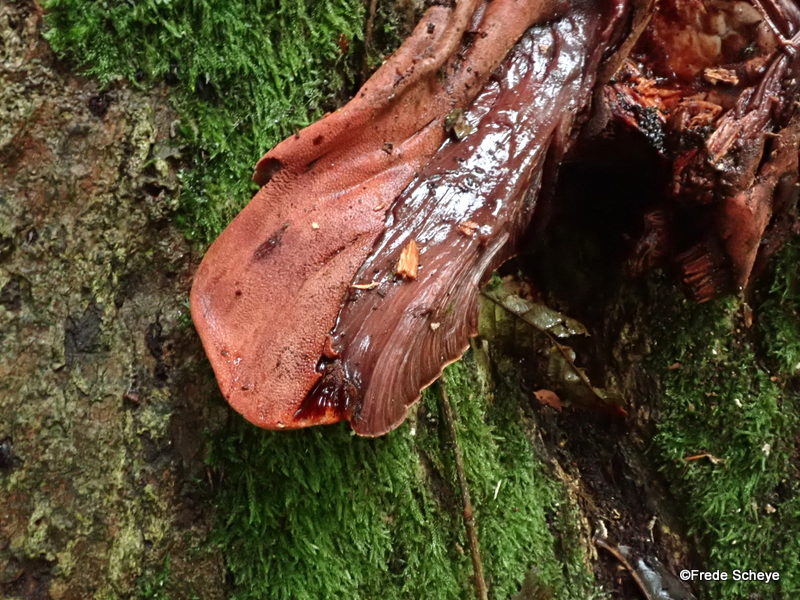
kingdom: Fungi
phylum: Basidiomycota
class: Agaricomycetes
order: Agaricales
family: Fistulinaceae
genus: Fistulina
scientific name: Fistulina hepatica
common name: oksetunge
